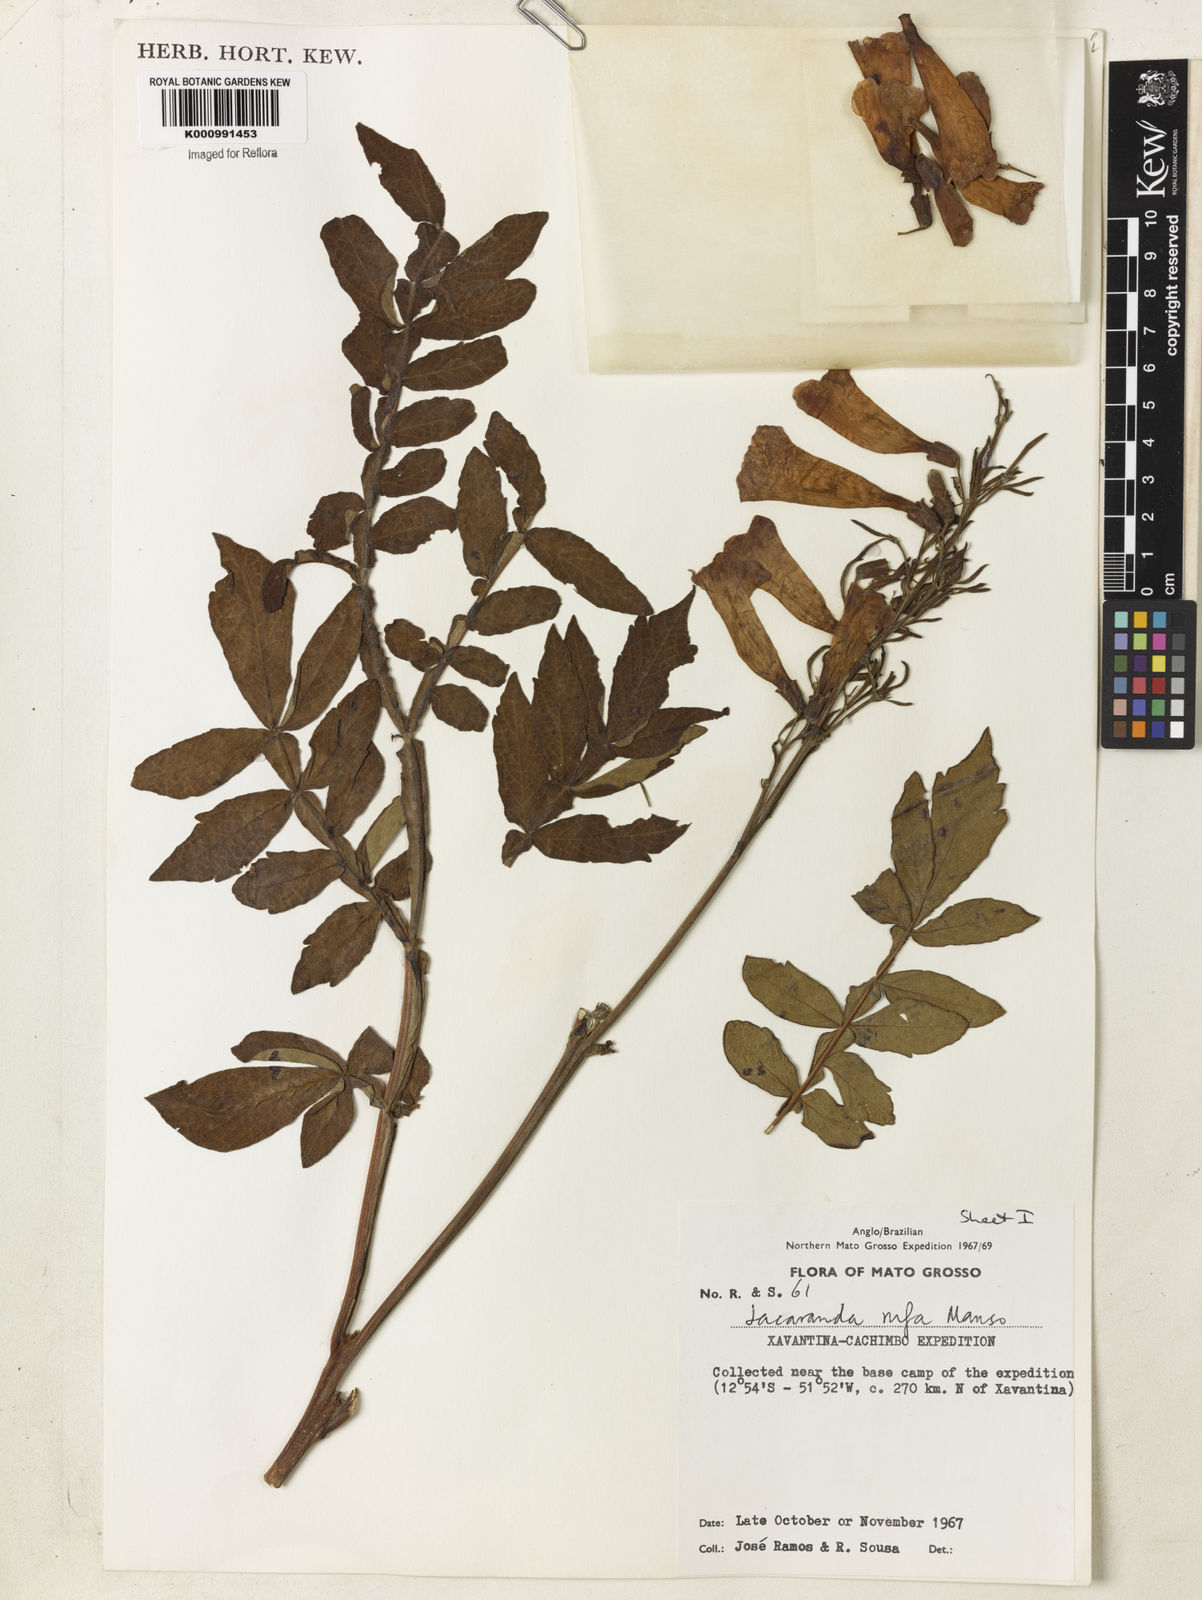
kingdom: Plantae
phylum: Tracheophyta
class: Magnoliopsida
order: Lamiales
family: Bignoniaceae
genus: Jacaranda
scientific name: Jacaranda rufa
